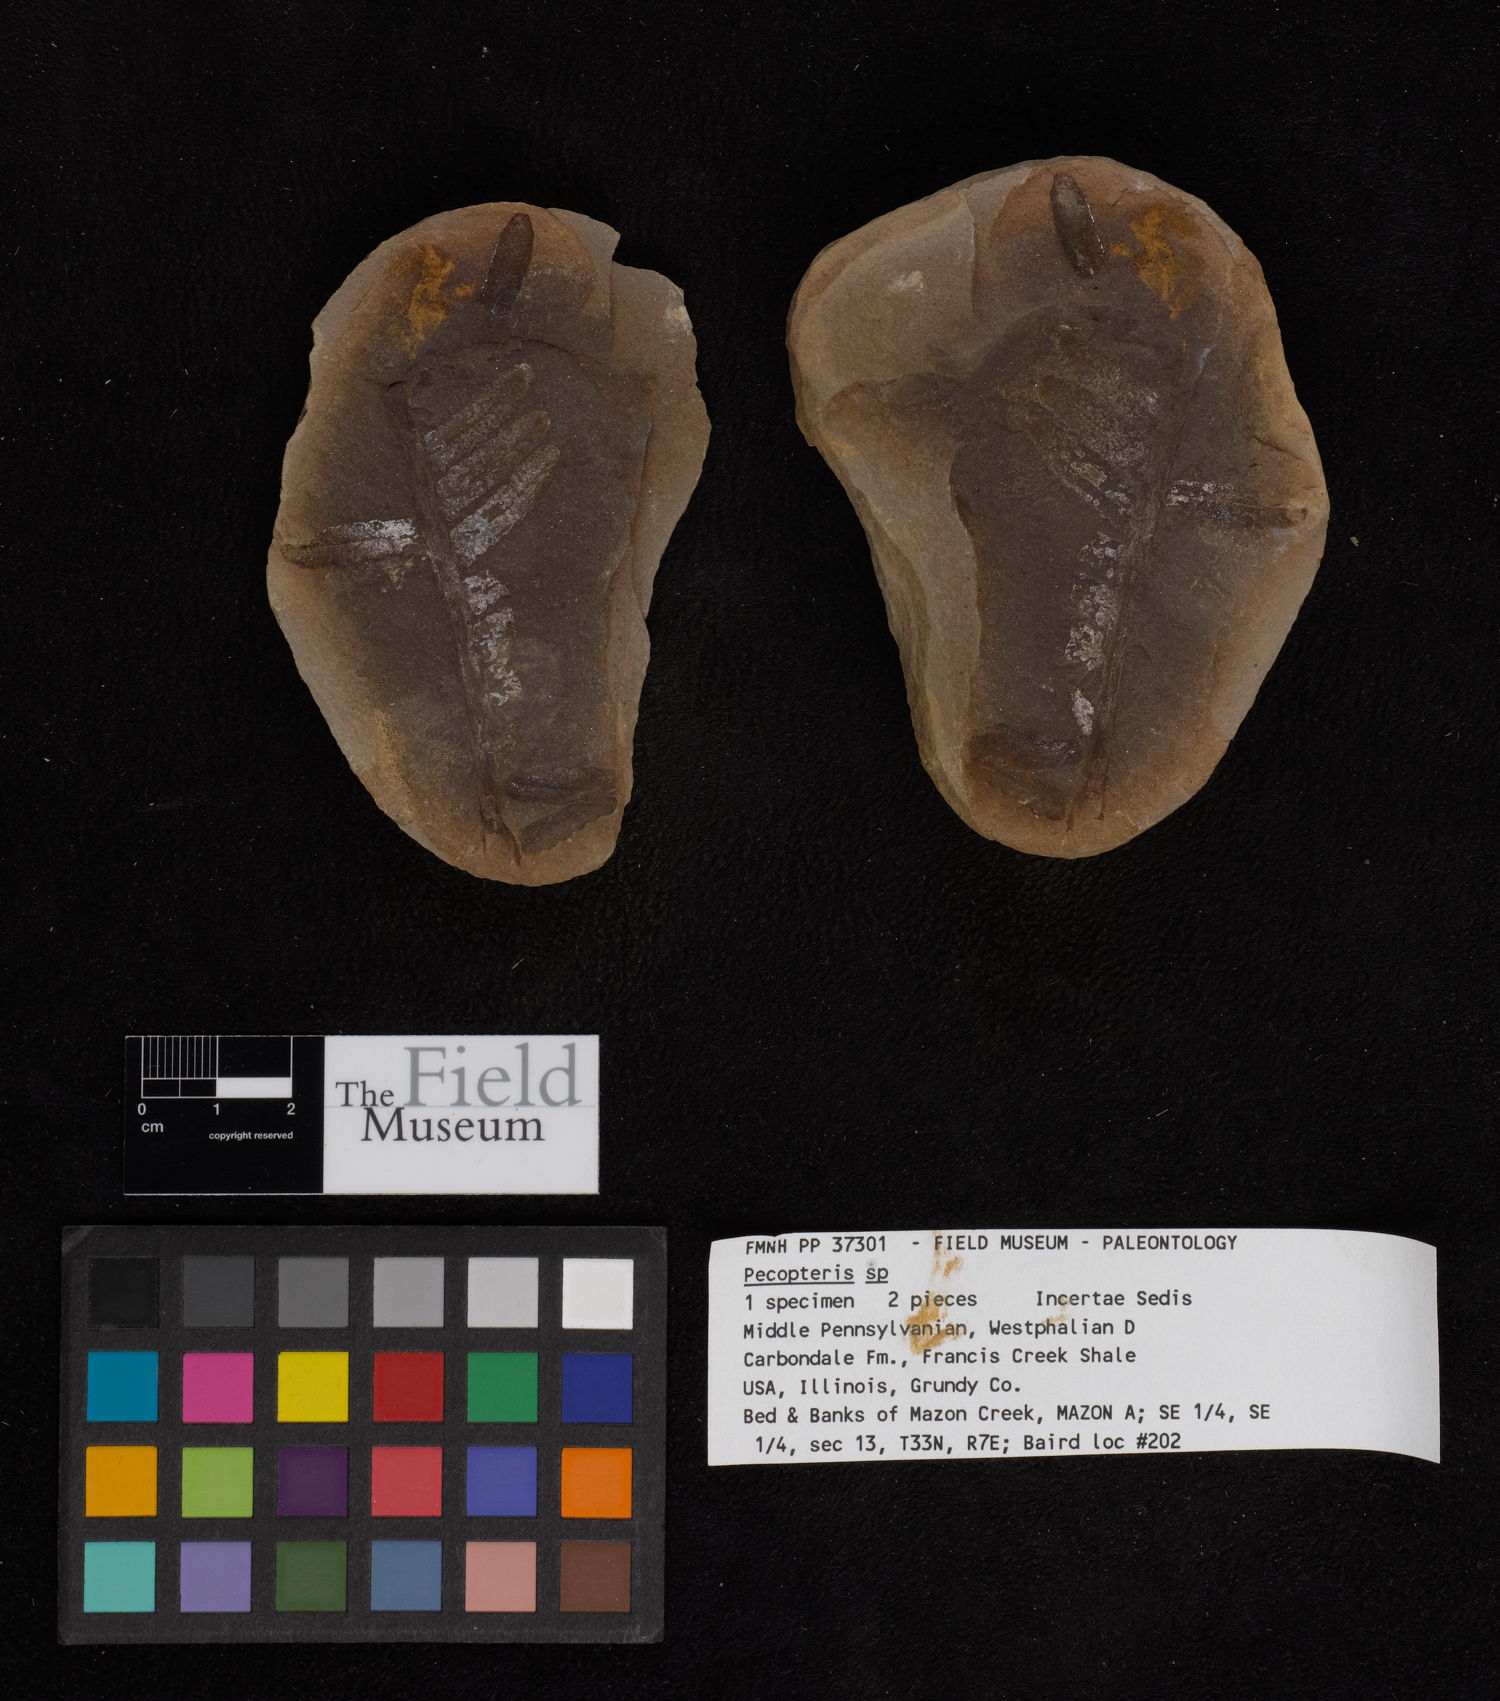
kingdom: Plantae
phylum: Tracheophyta
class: Polypodiopsida
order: Marattiales
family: Asterothecaceae
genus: Pecopteris
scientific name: Pecopteris
